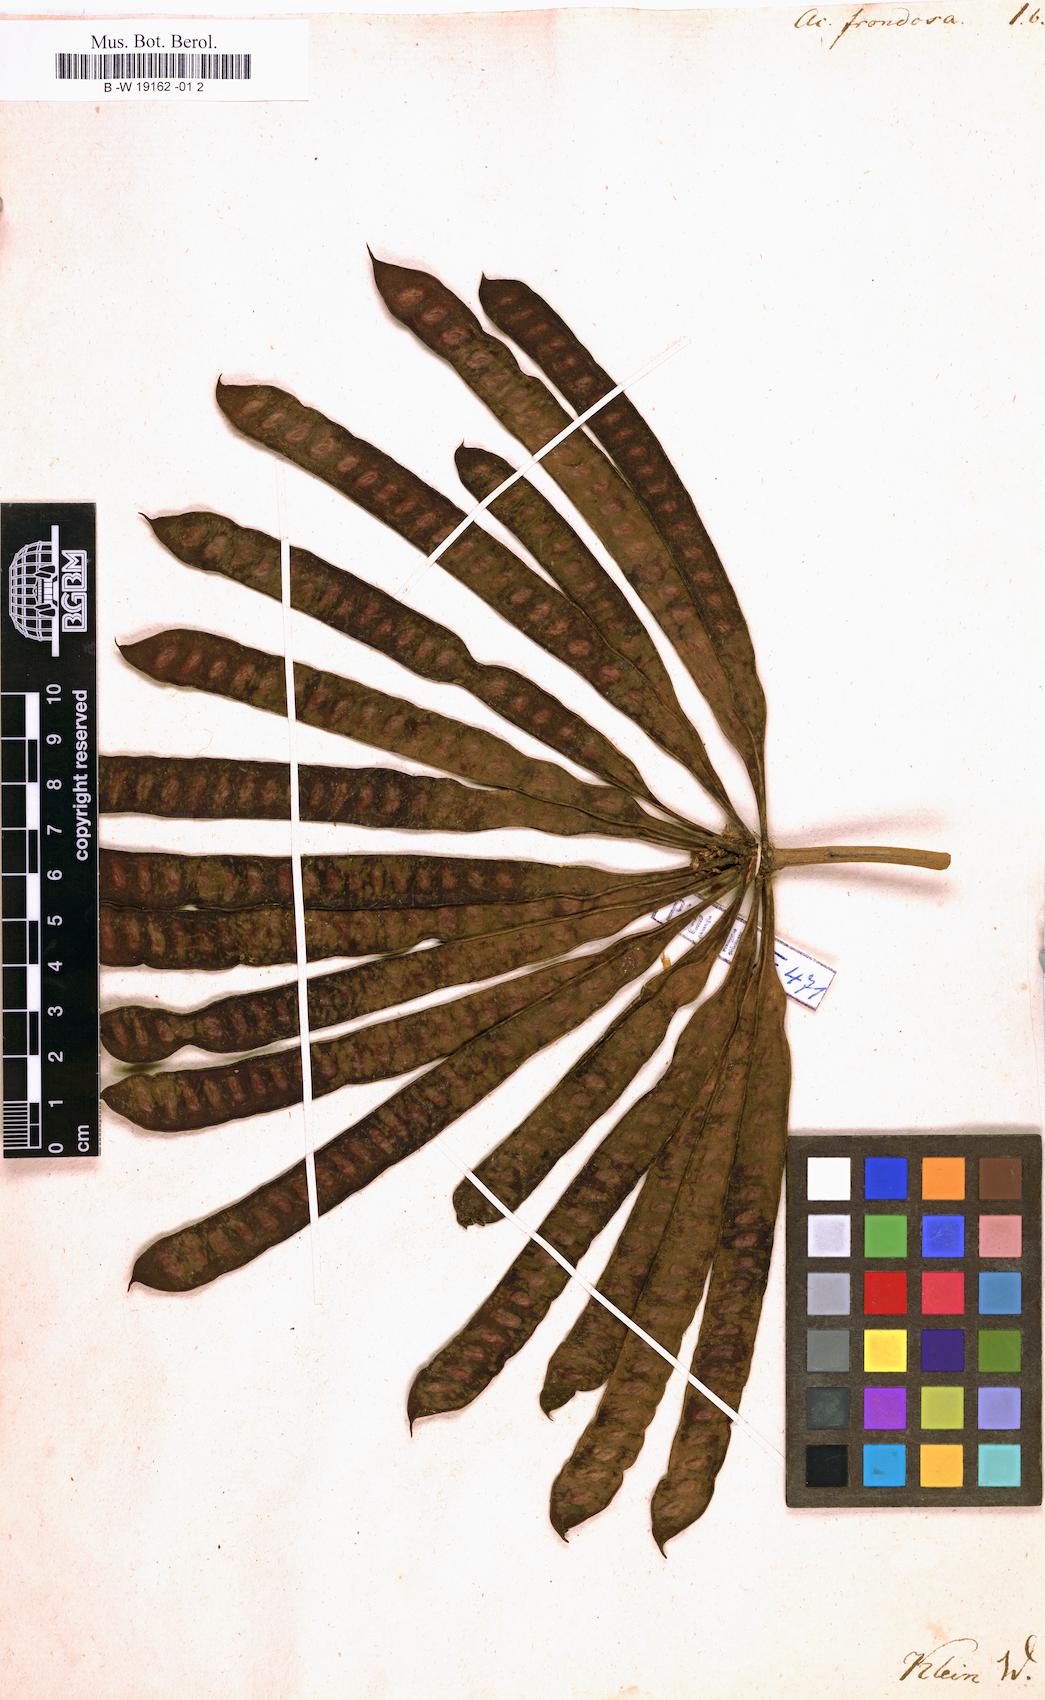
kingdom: Plantae
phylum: Tracheophyta
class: Magnoliopsida
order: Fabales
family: Fabaceae
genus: Leucaena
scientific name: Leucaena leucocephala
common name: White leadtree
